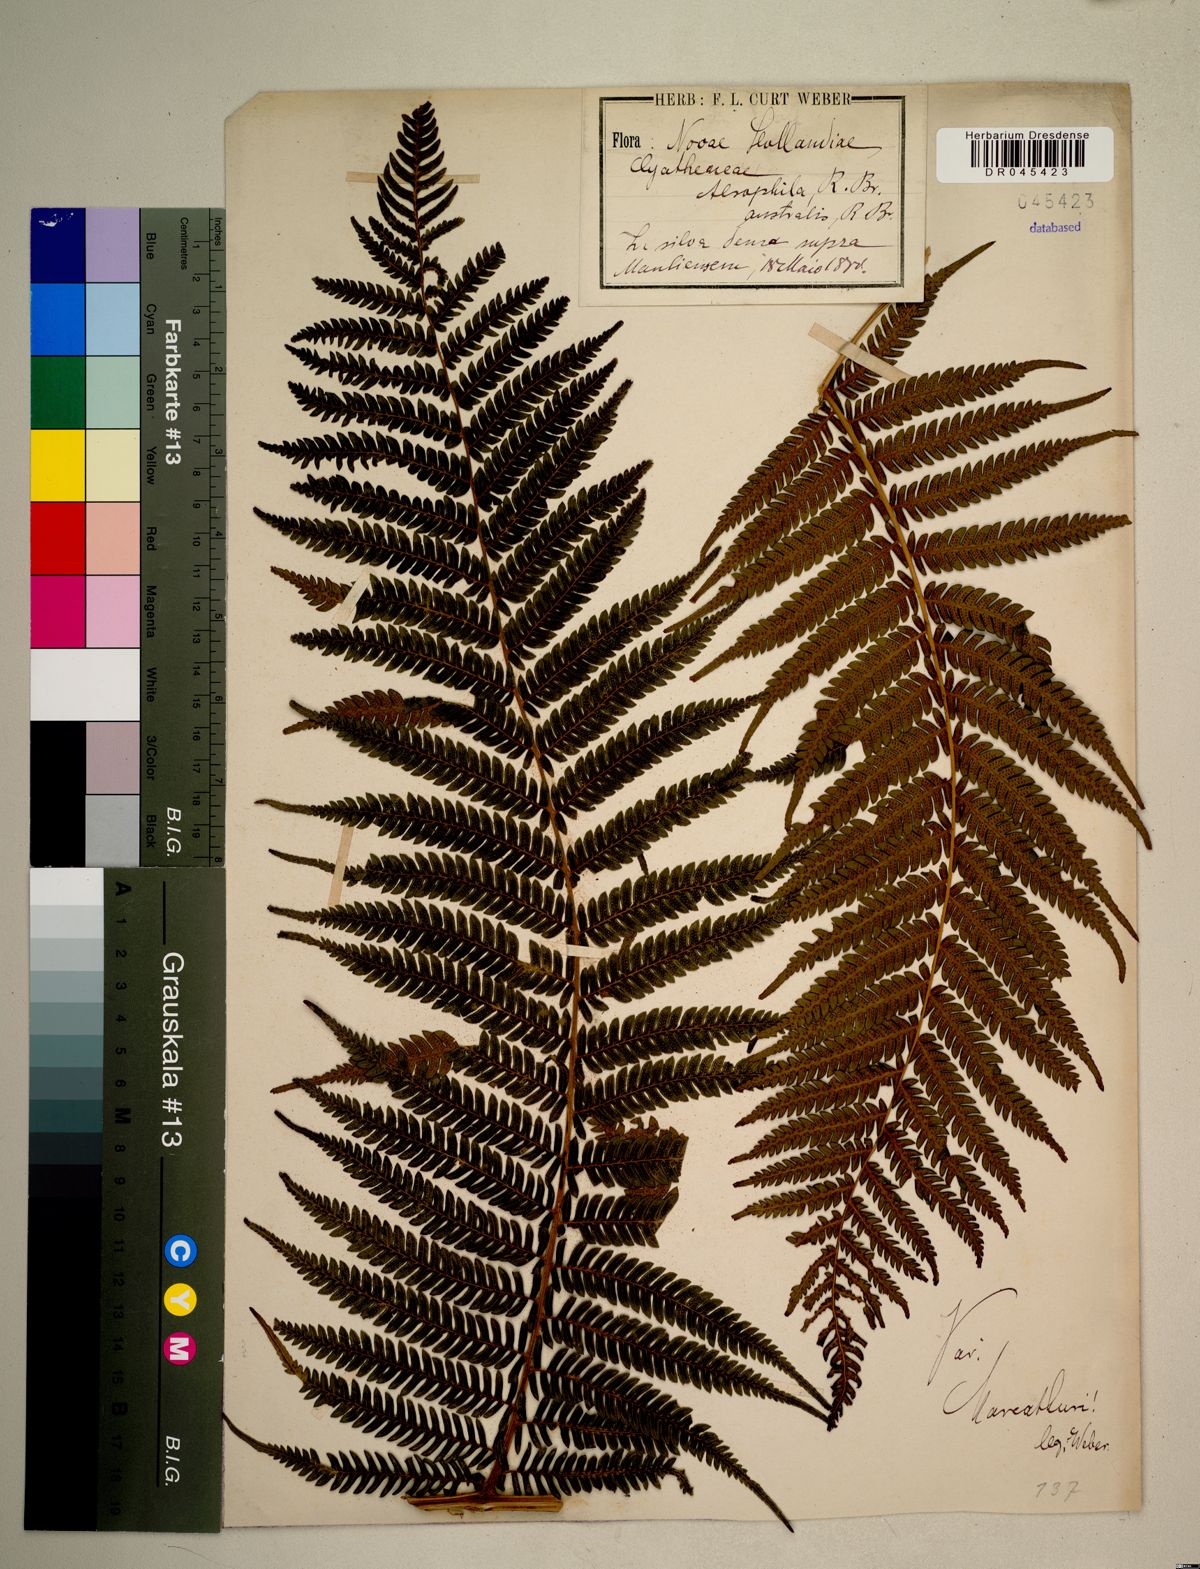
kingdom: Plantae
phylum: Tracheophyta
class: Polypodiopsida
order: Cyatheales
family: Cyatheaceae
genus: Alsophila
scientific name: Alsophila australis
